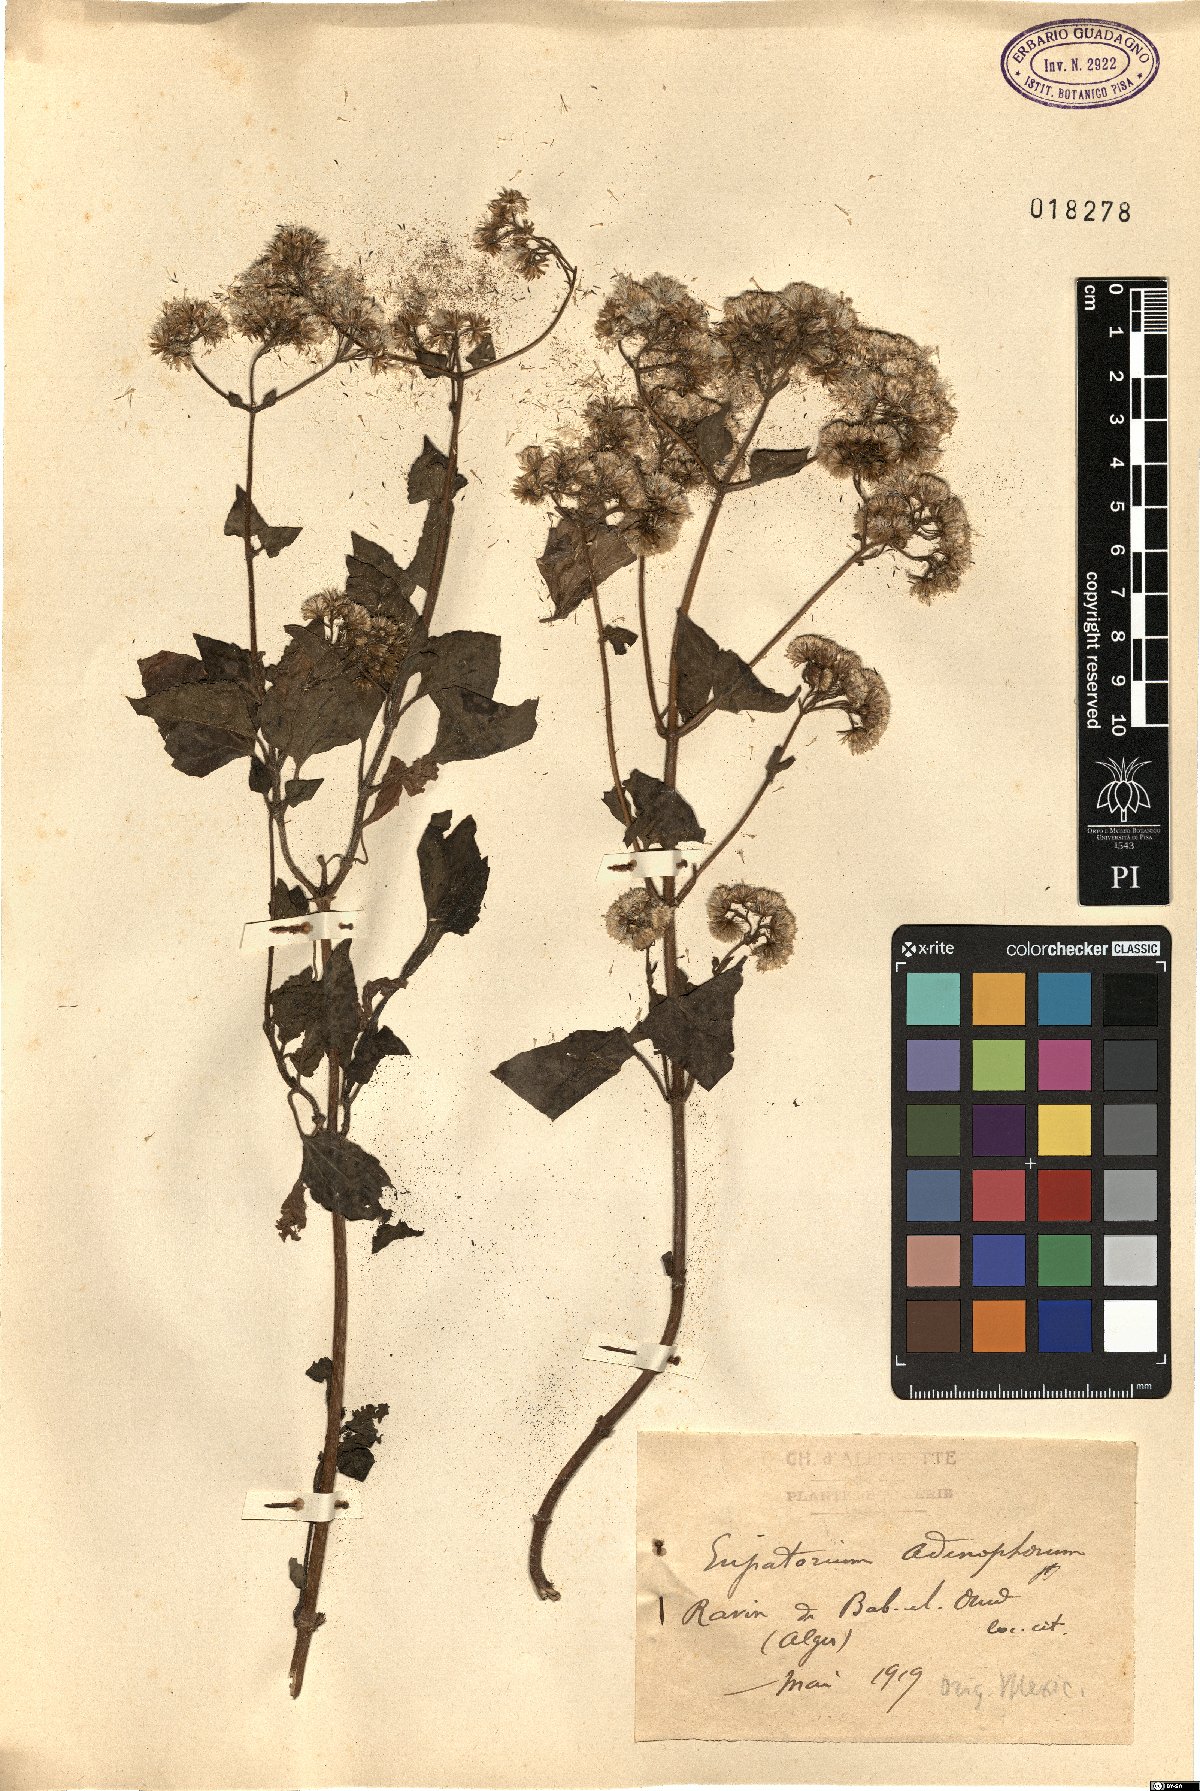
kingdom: Plantae
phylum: Tracheophyta
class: Magnoliopsida
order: Asterales
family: Asteraceae
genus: Ageratina
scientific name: Ageratina adenophora
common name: Sticky snakeroot
